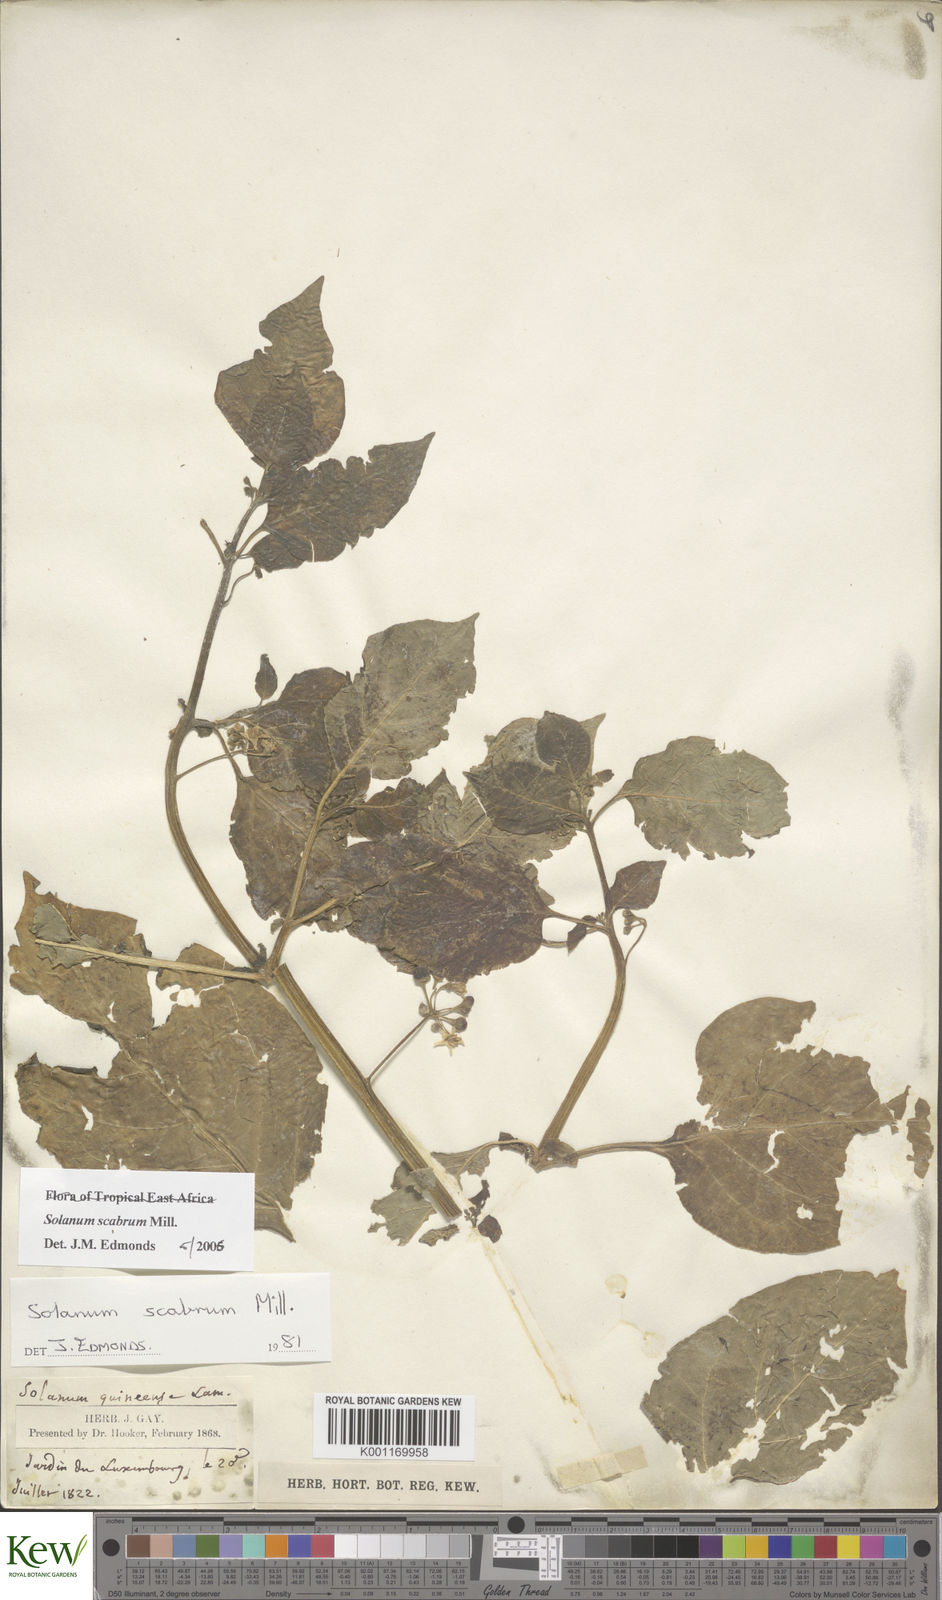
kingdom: Plantae
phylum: Tracheophyta
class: Magnoliopsida
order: Solanales
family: Solanaceae
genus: Solanum
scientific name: Solanum scabrum
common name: Garden-huckleberry
